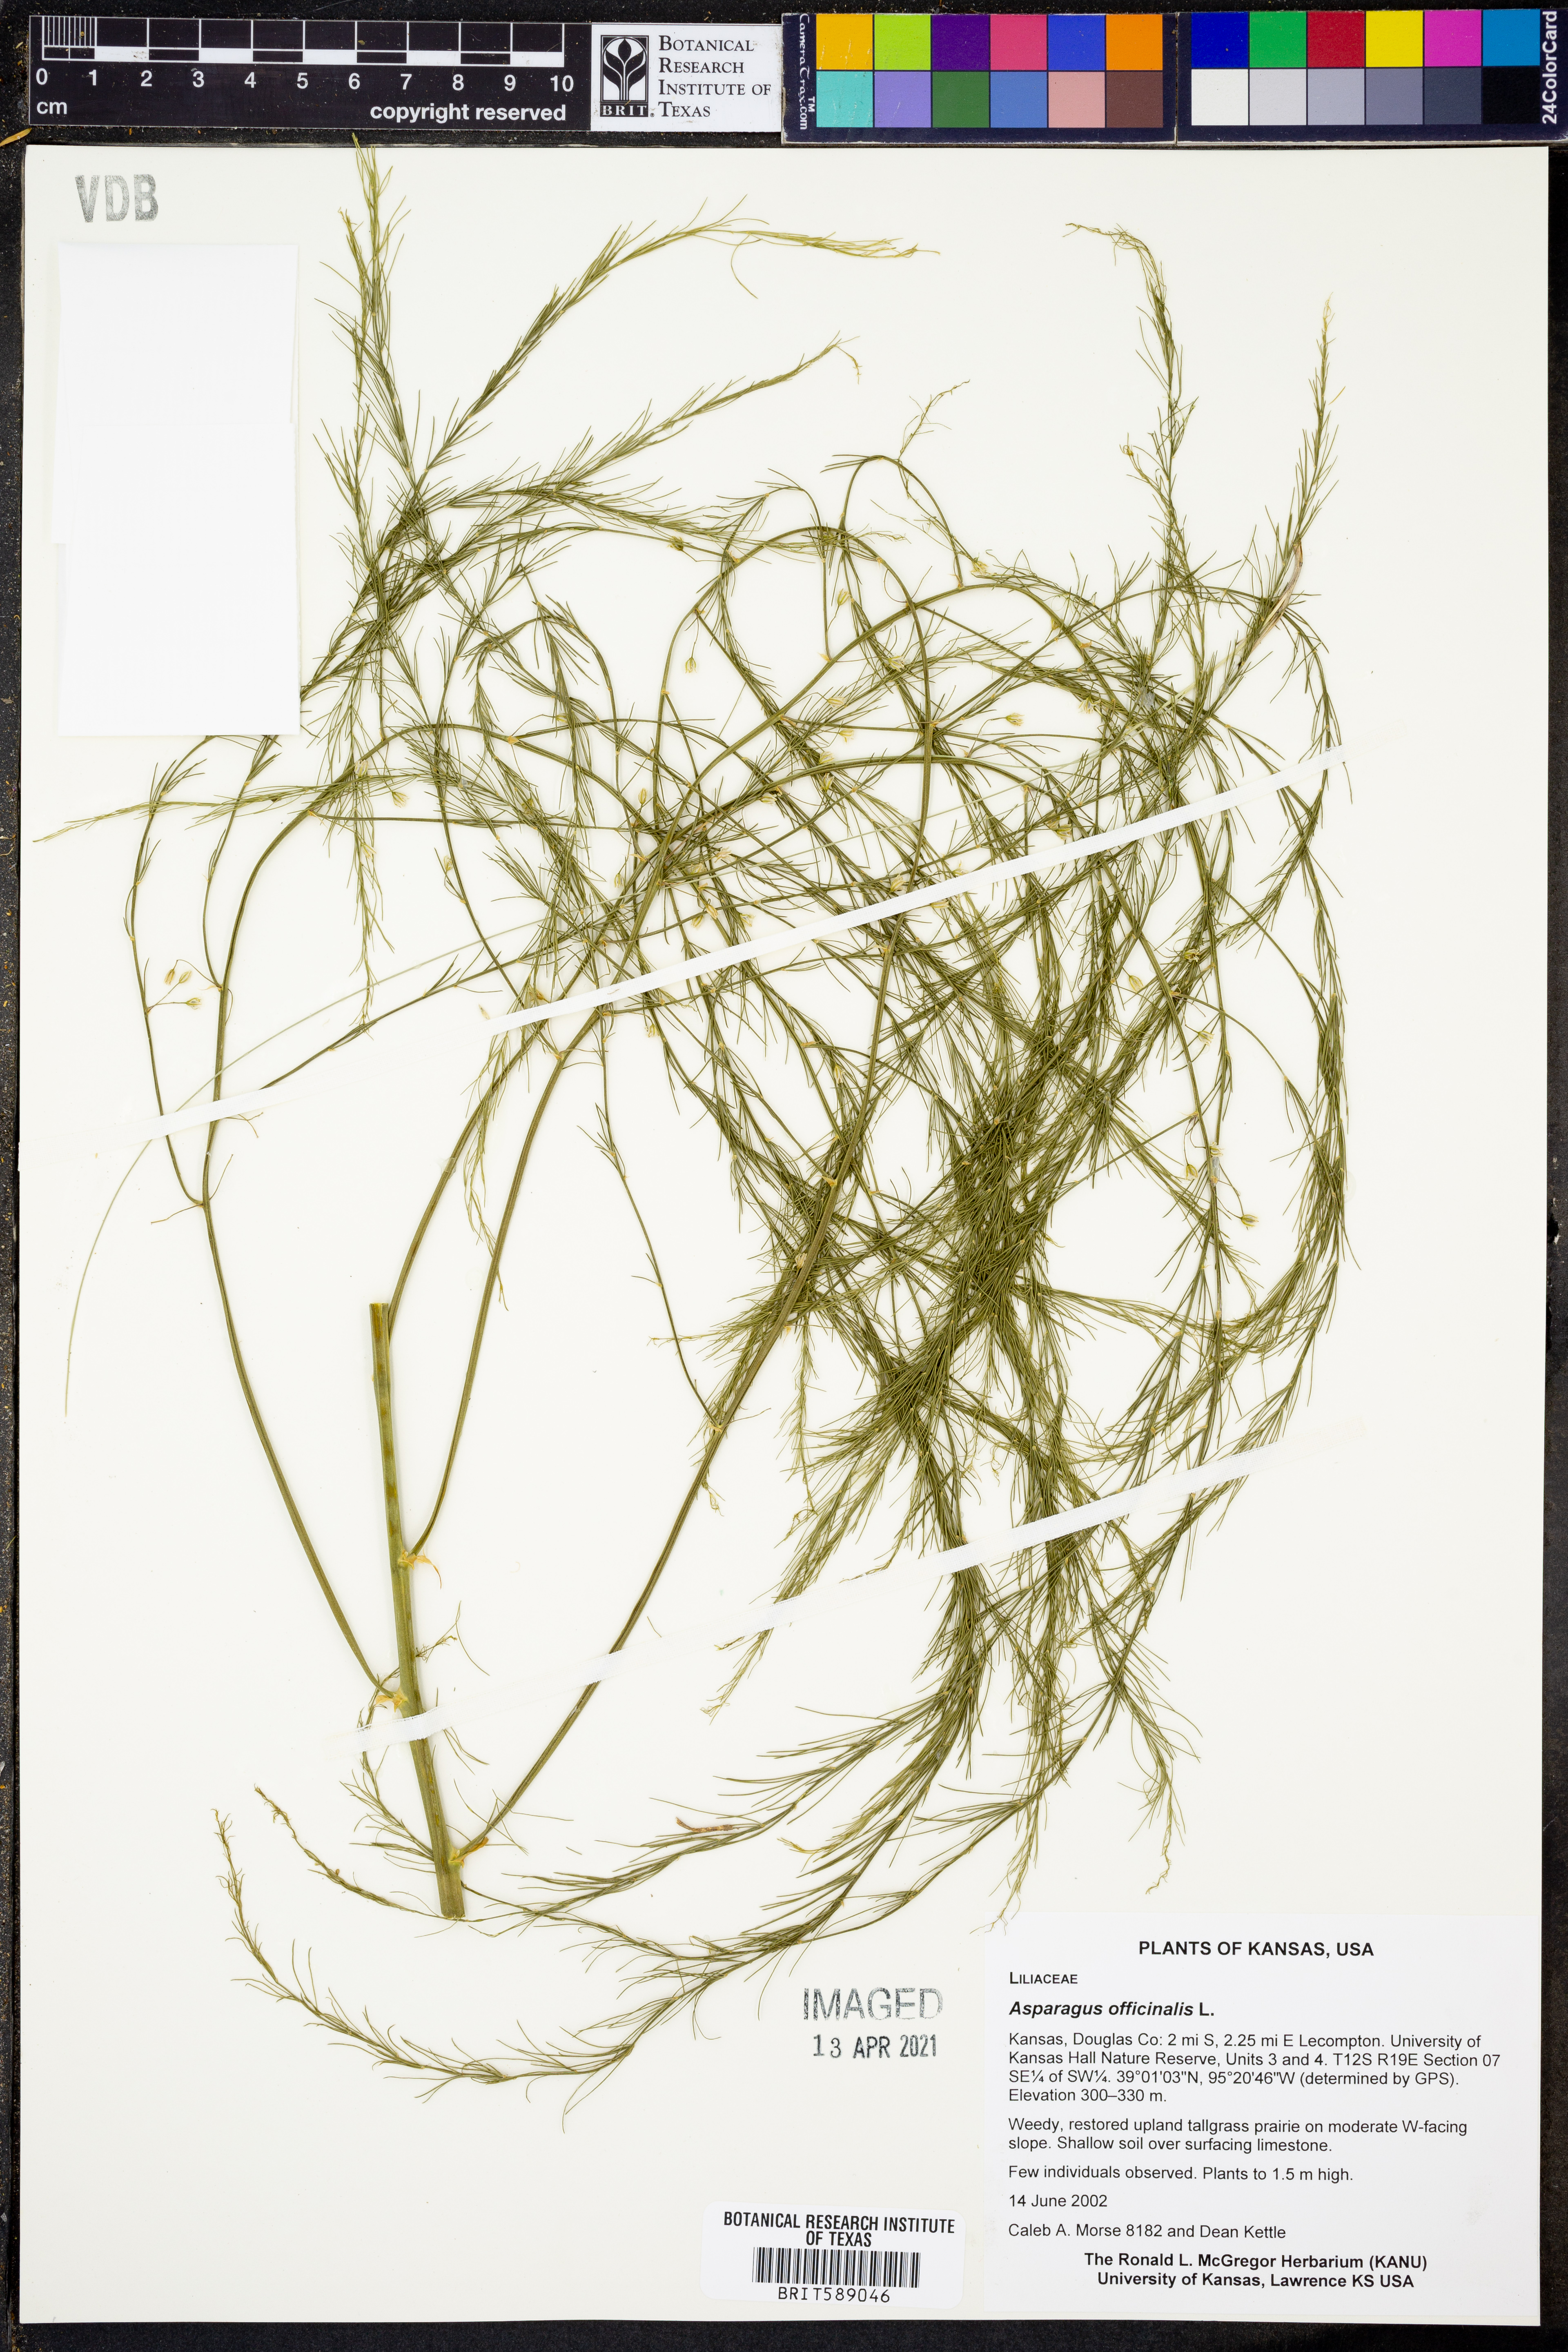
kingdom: Plantae
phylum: Tracheophyta
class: Liliopsida
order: Asparagales
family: Asparagaceae
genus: Asparagus
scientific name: Asparagus officinalis
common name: Garden asparagus
